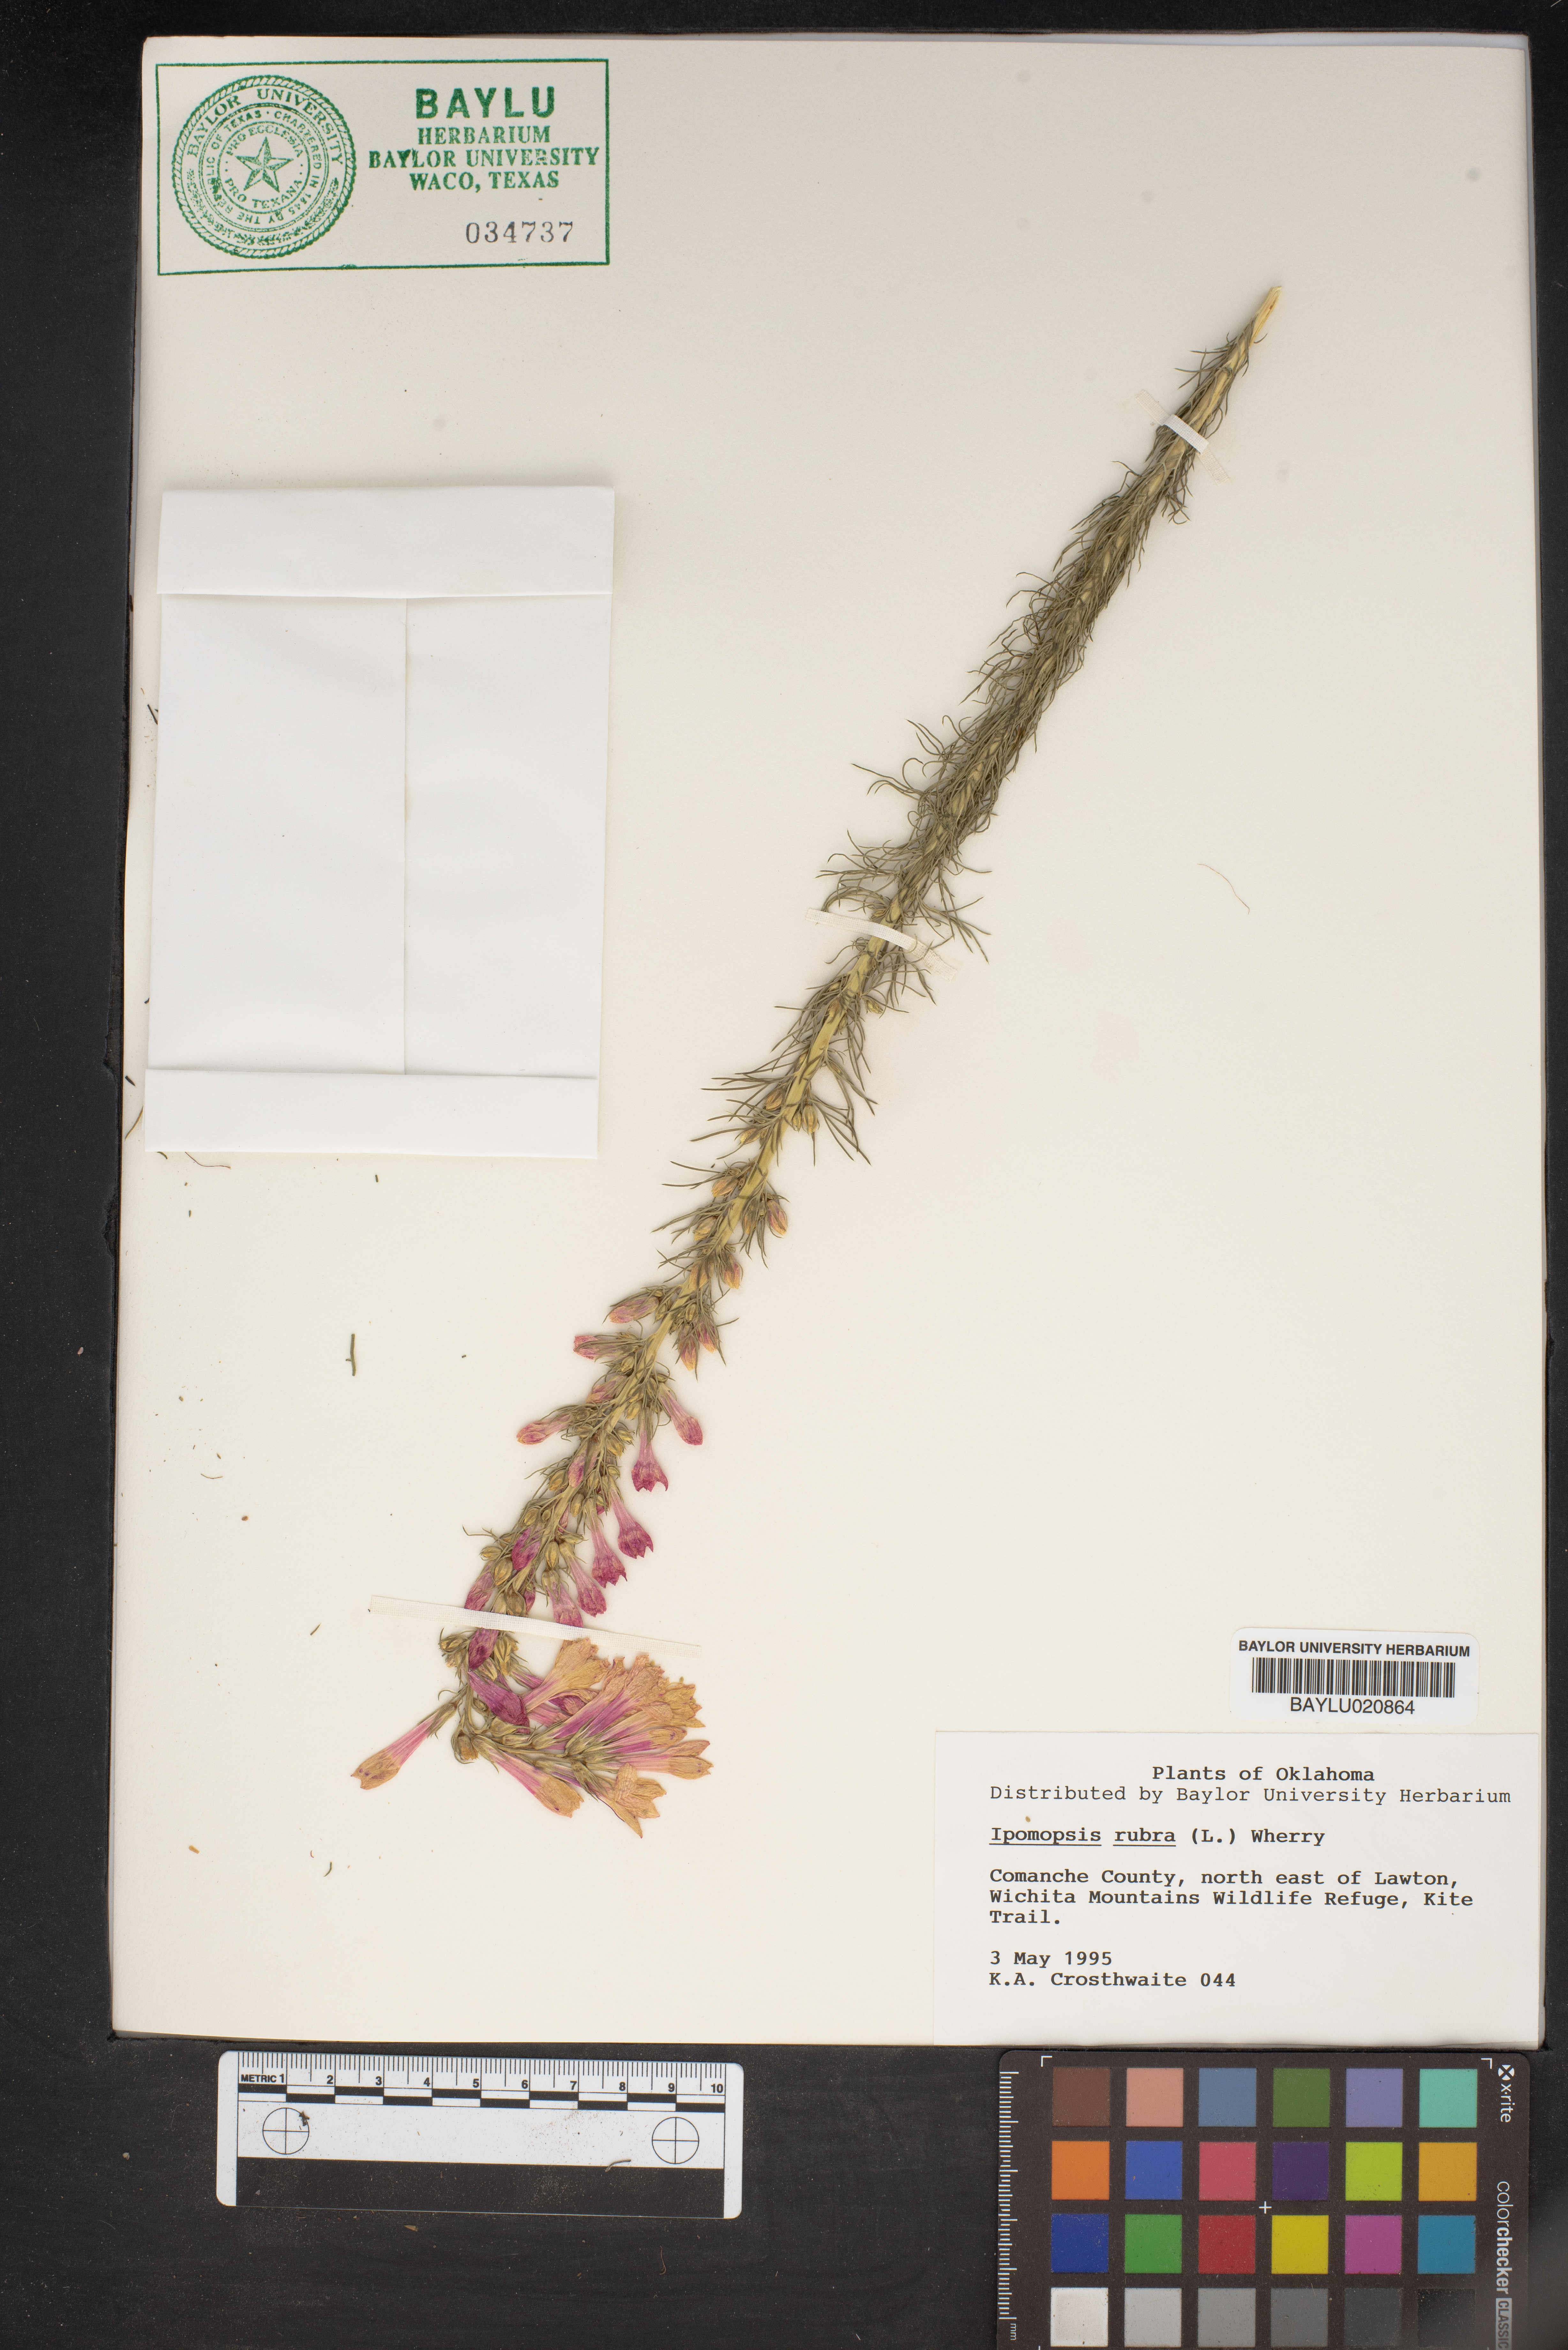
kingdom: Plantae
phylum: Tracheophyta
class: Magnoliopsida
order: Ericales
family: Polemoniaceae
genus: Ipomopsis
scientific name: Ipomopsis rubra
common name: Skyrocket
